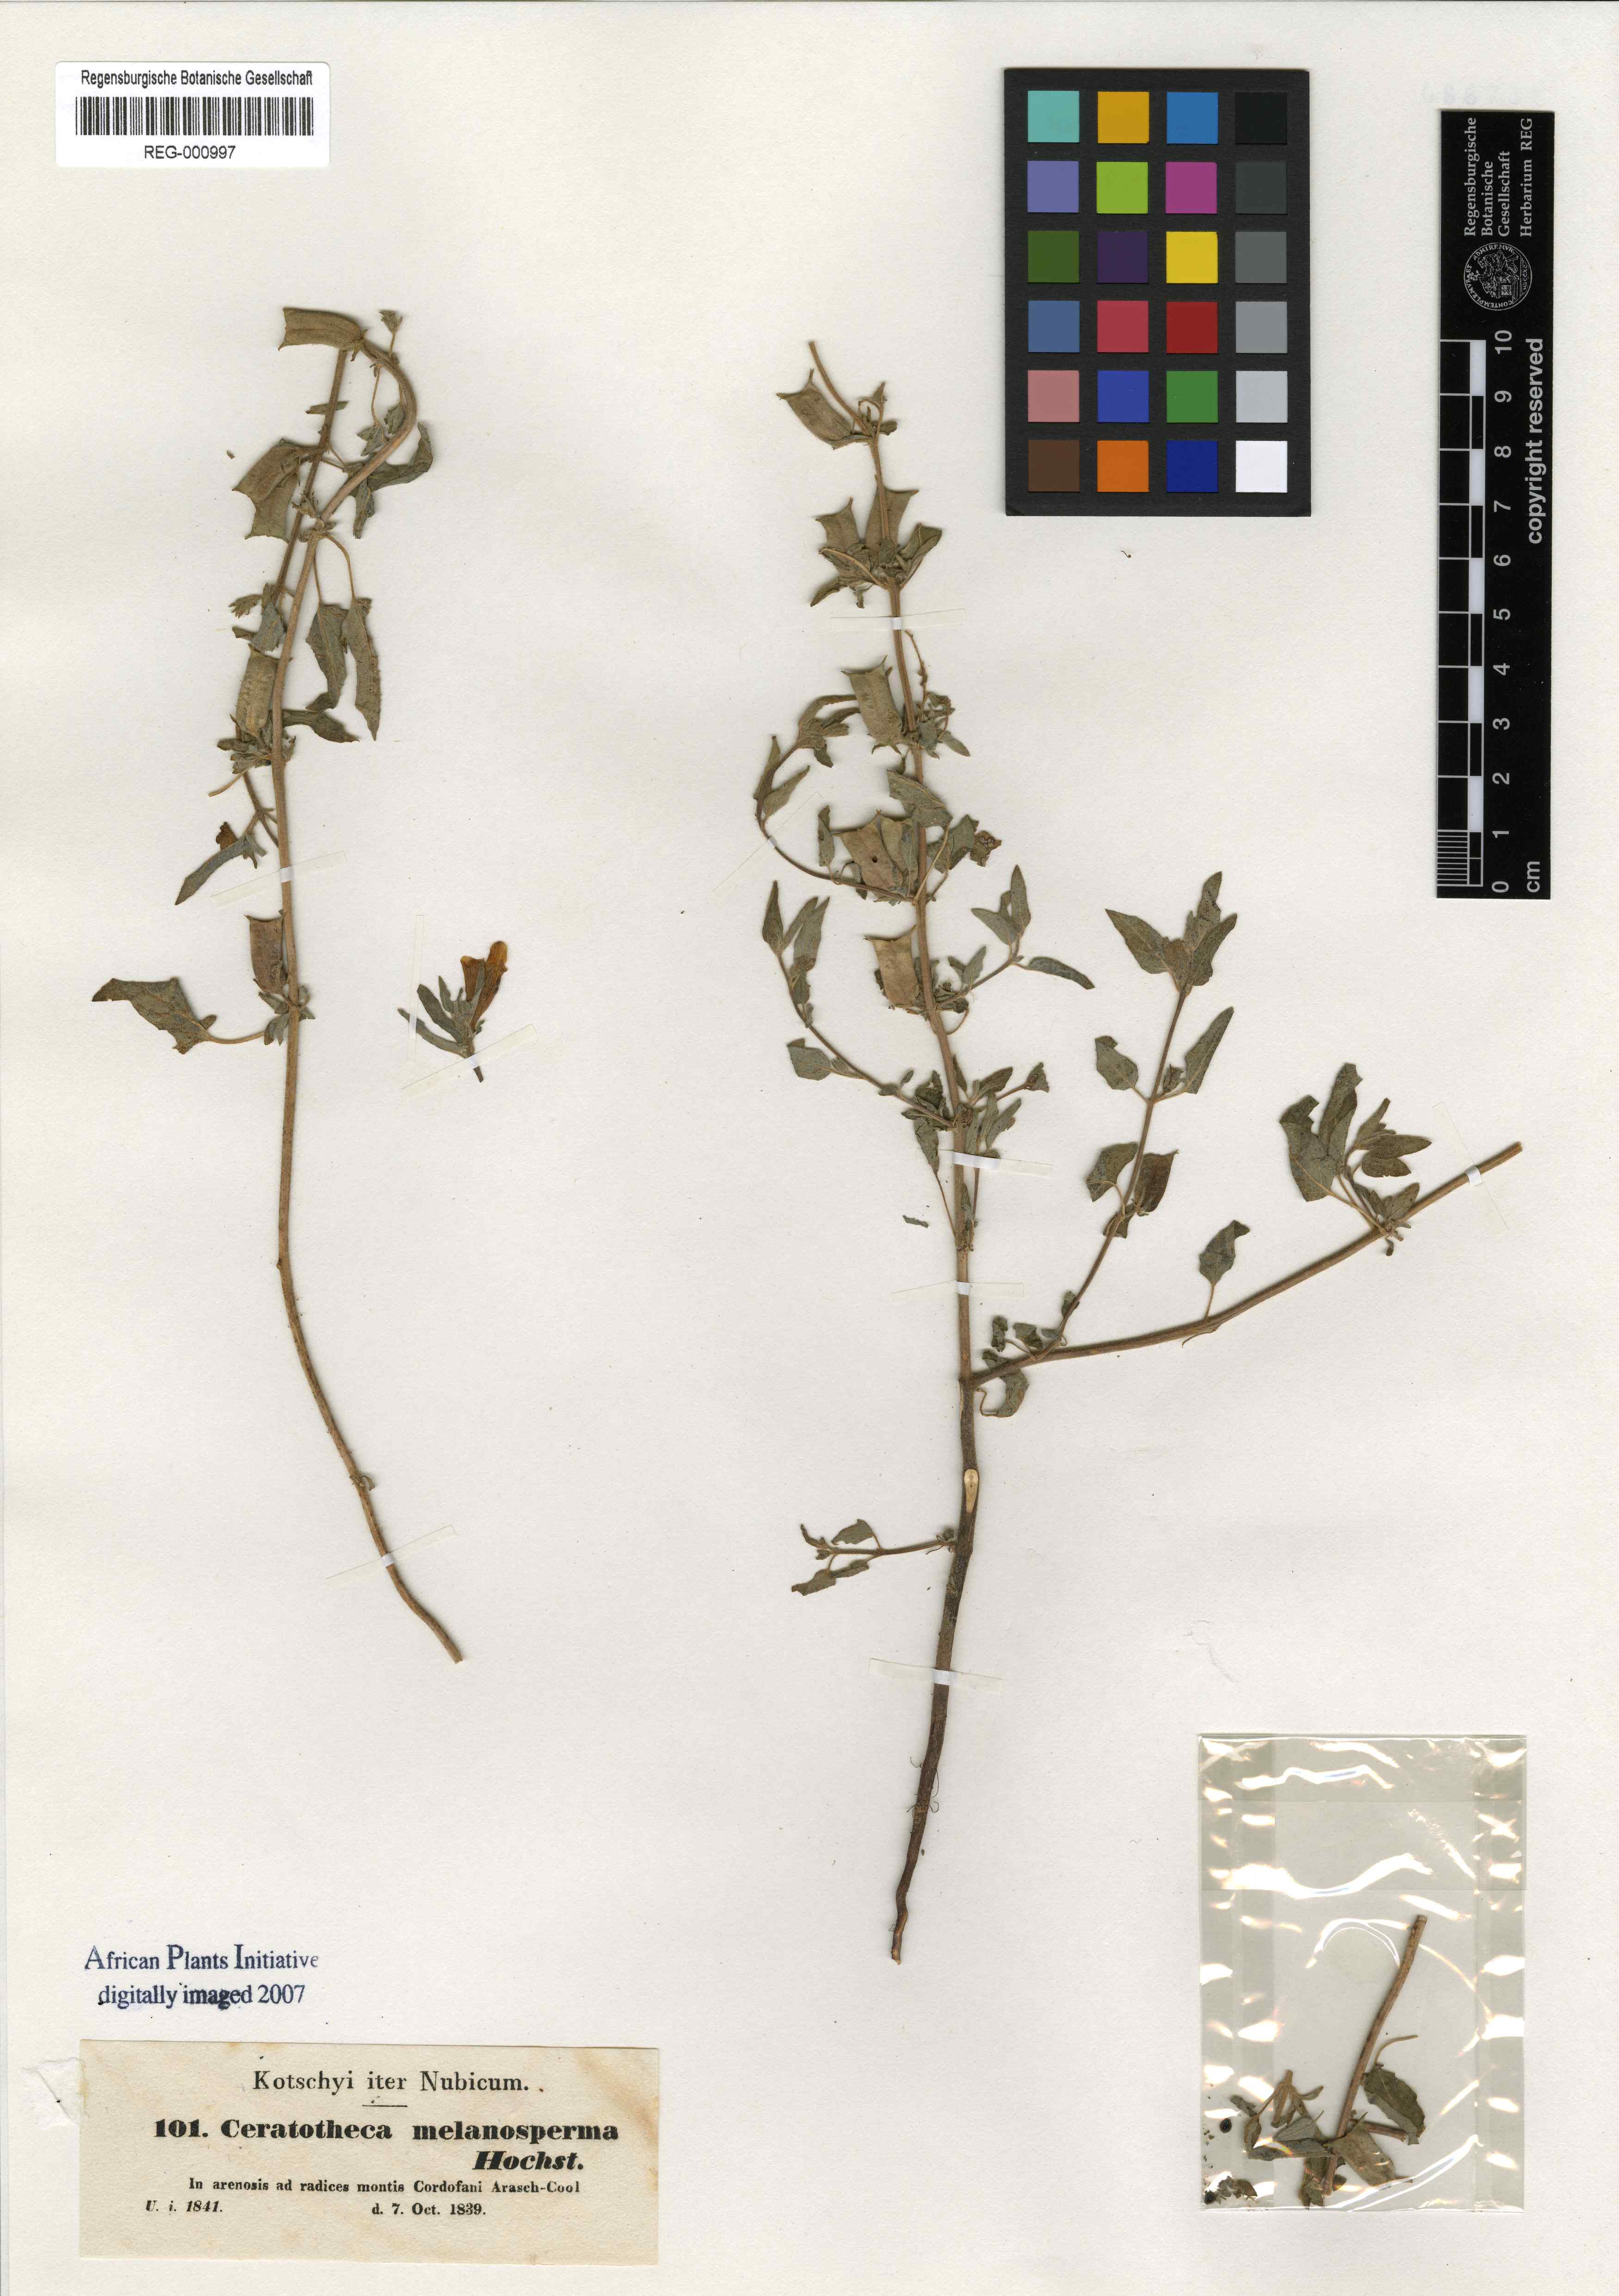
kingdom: Plantae
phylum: Tracheophyta
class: Magnoliopsida
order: Lamiales
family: Pedaliaceae
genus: Sesamum
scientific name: Sesamum sesamoides
